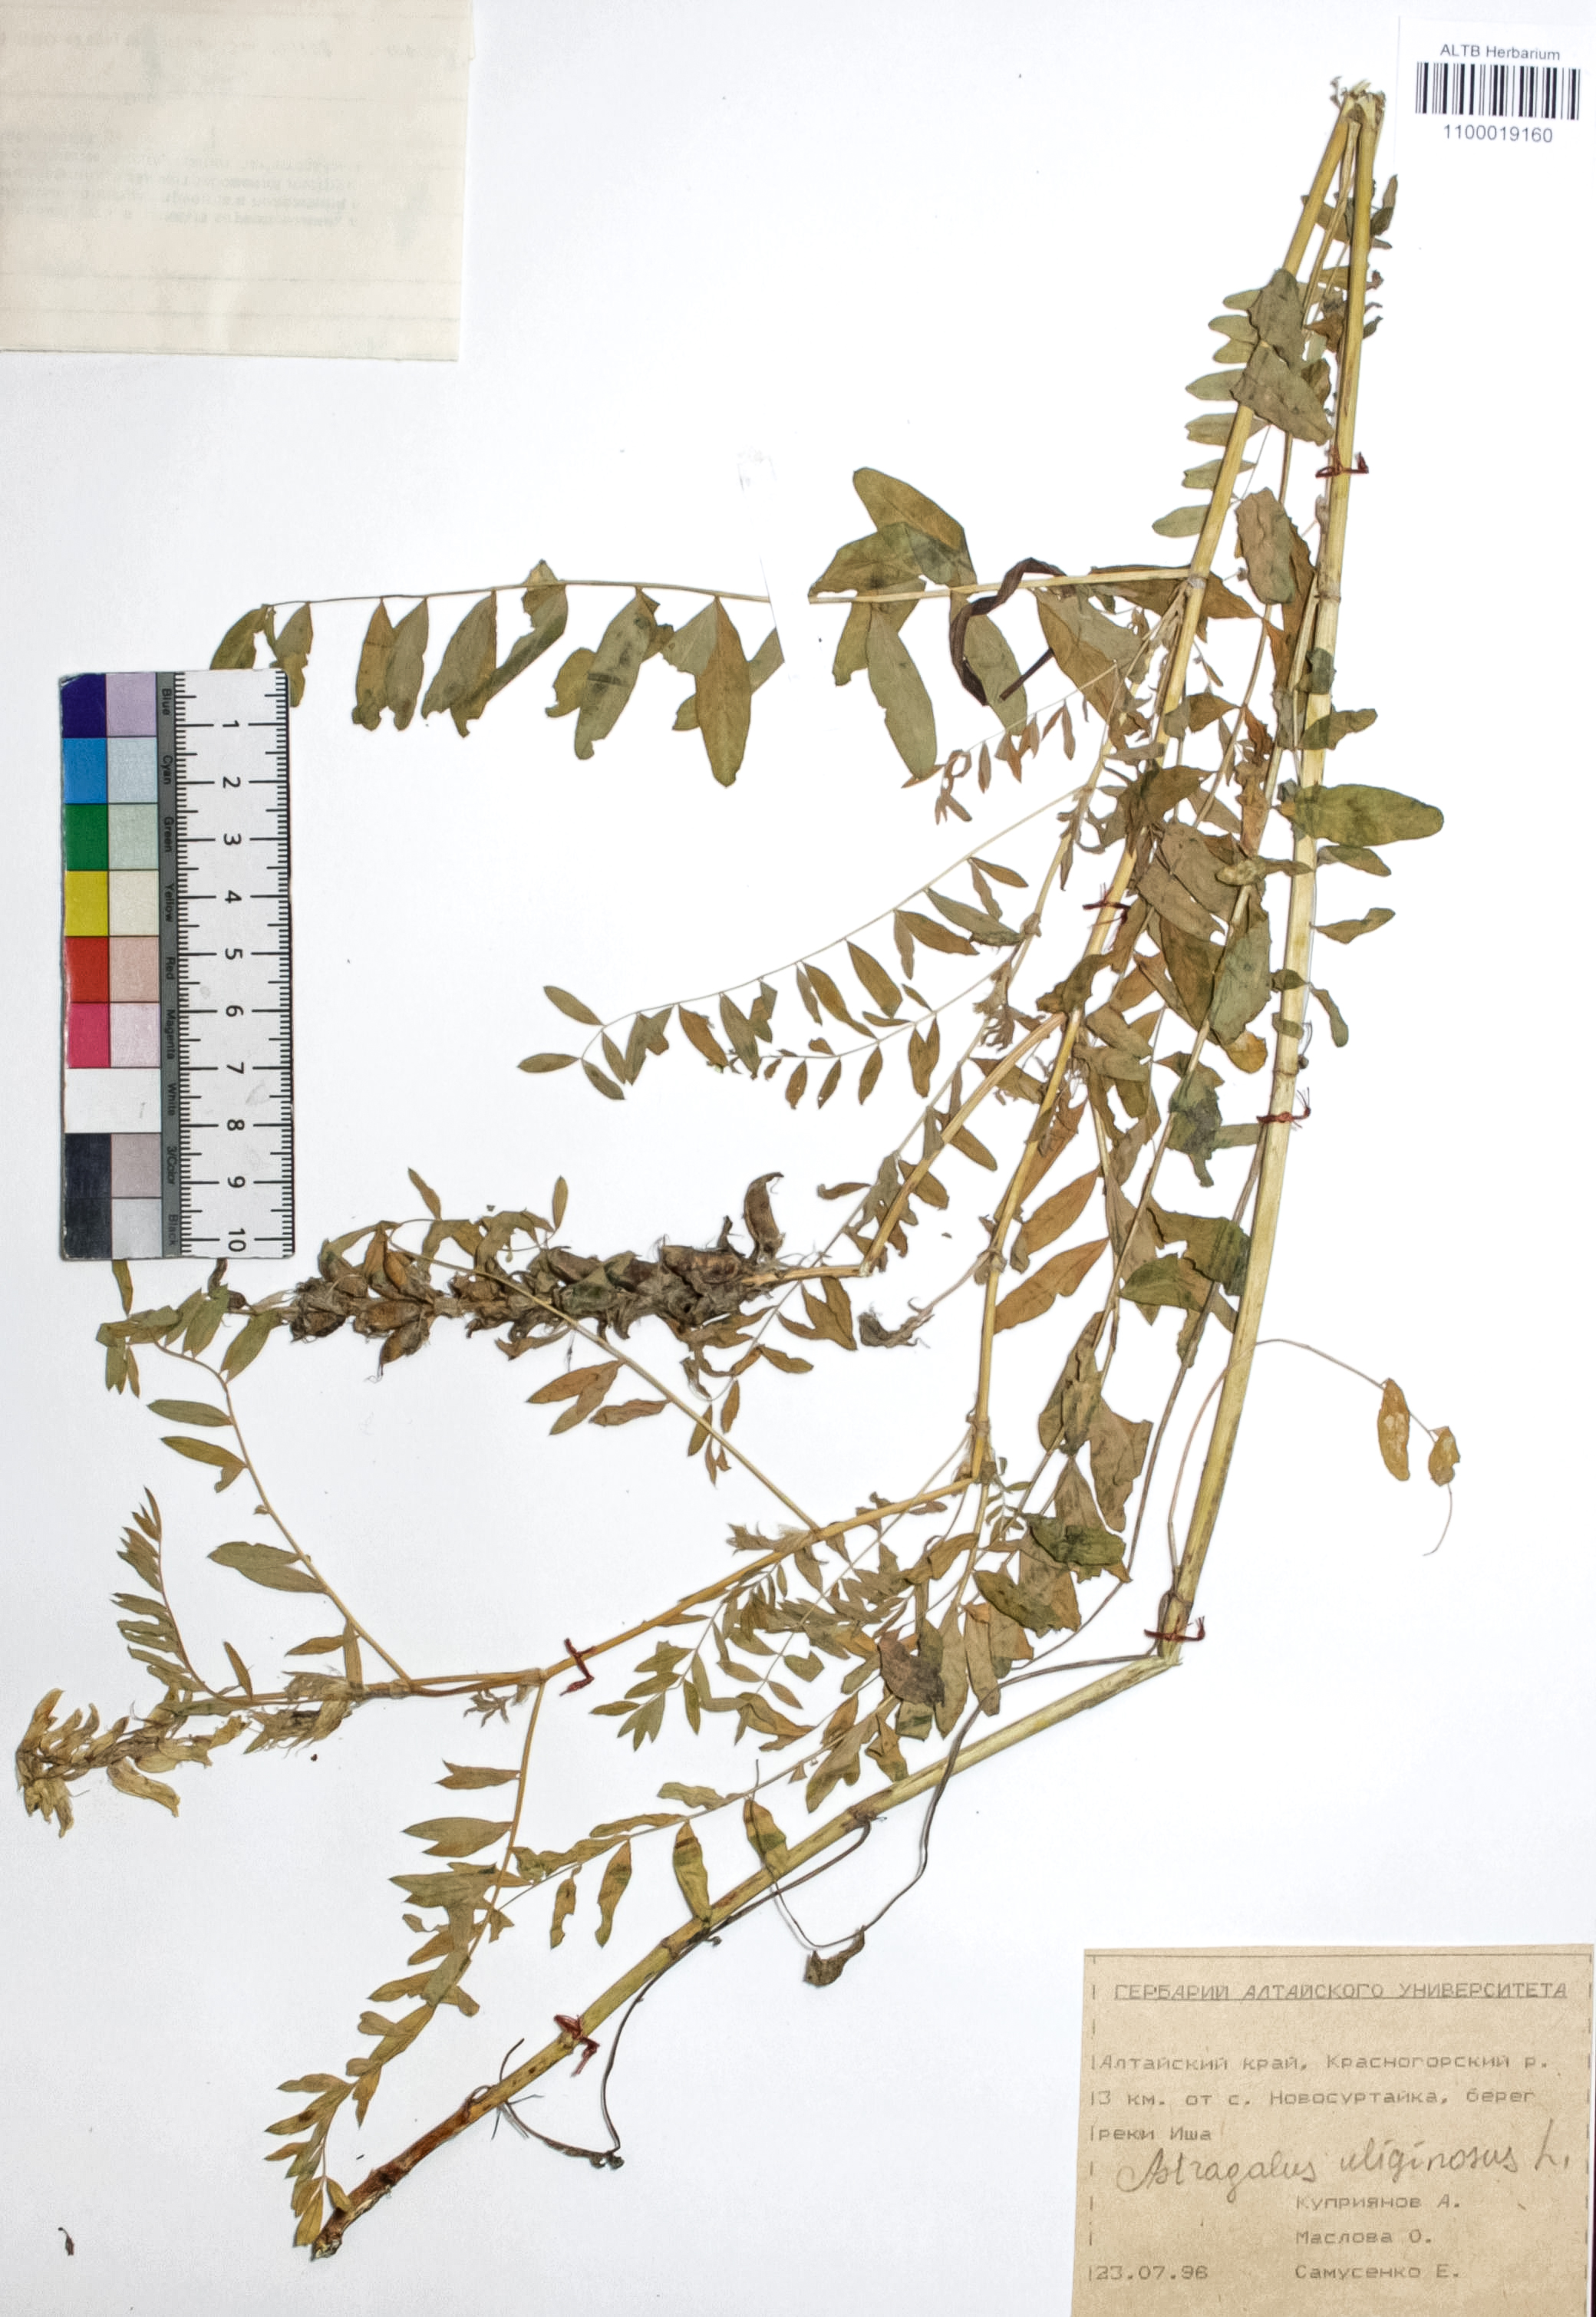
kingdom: Plantae
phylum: Tracheophyta
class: Magnoliopsida
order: Fabales
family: Fabaceae
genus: Astragalus
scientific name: Astragalus uliginosus
